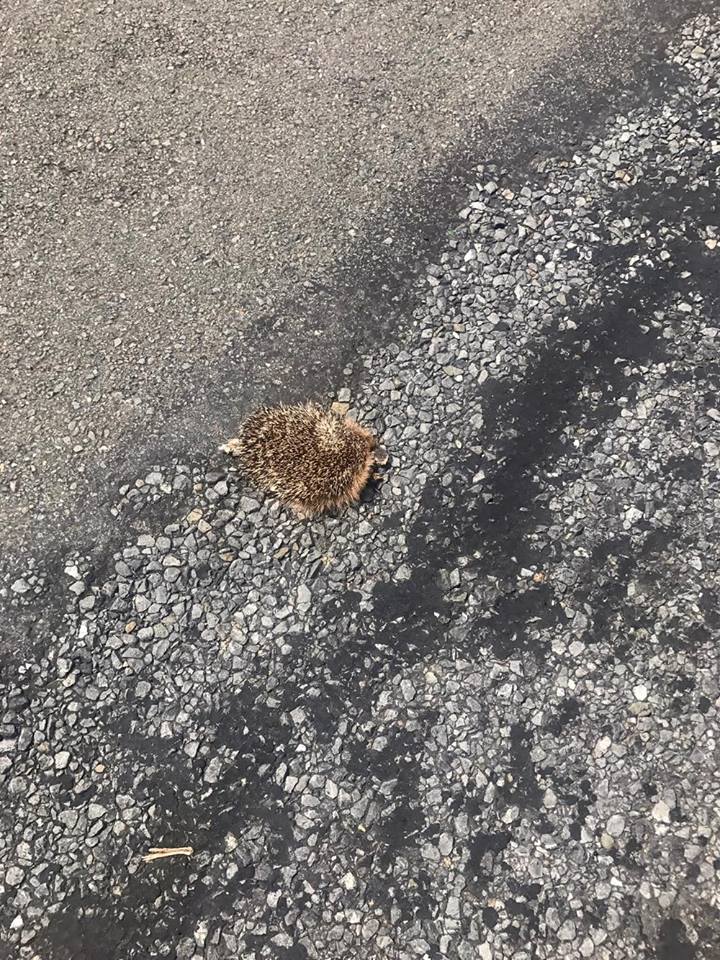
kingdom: Animalia
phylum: Chordata
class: Mammalia
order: Erinaceomorpha
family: Erinaceidae
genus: Erinaceus
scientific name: Erinaceus
